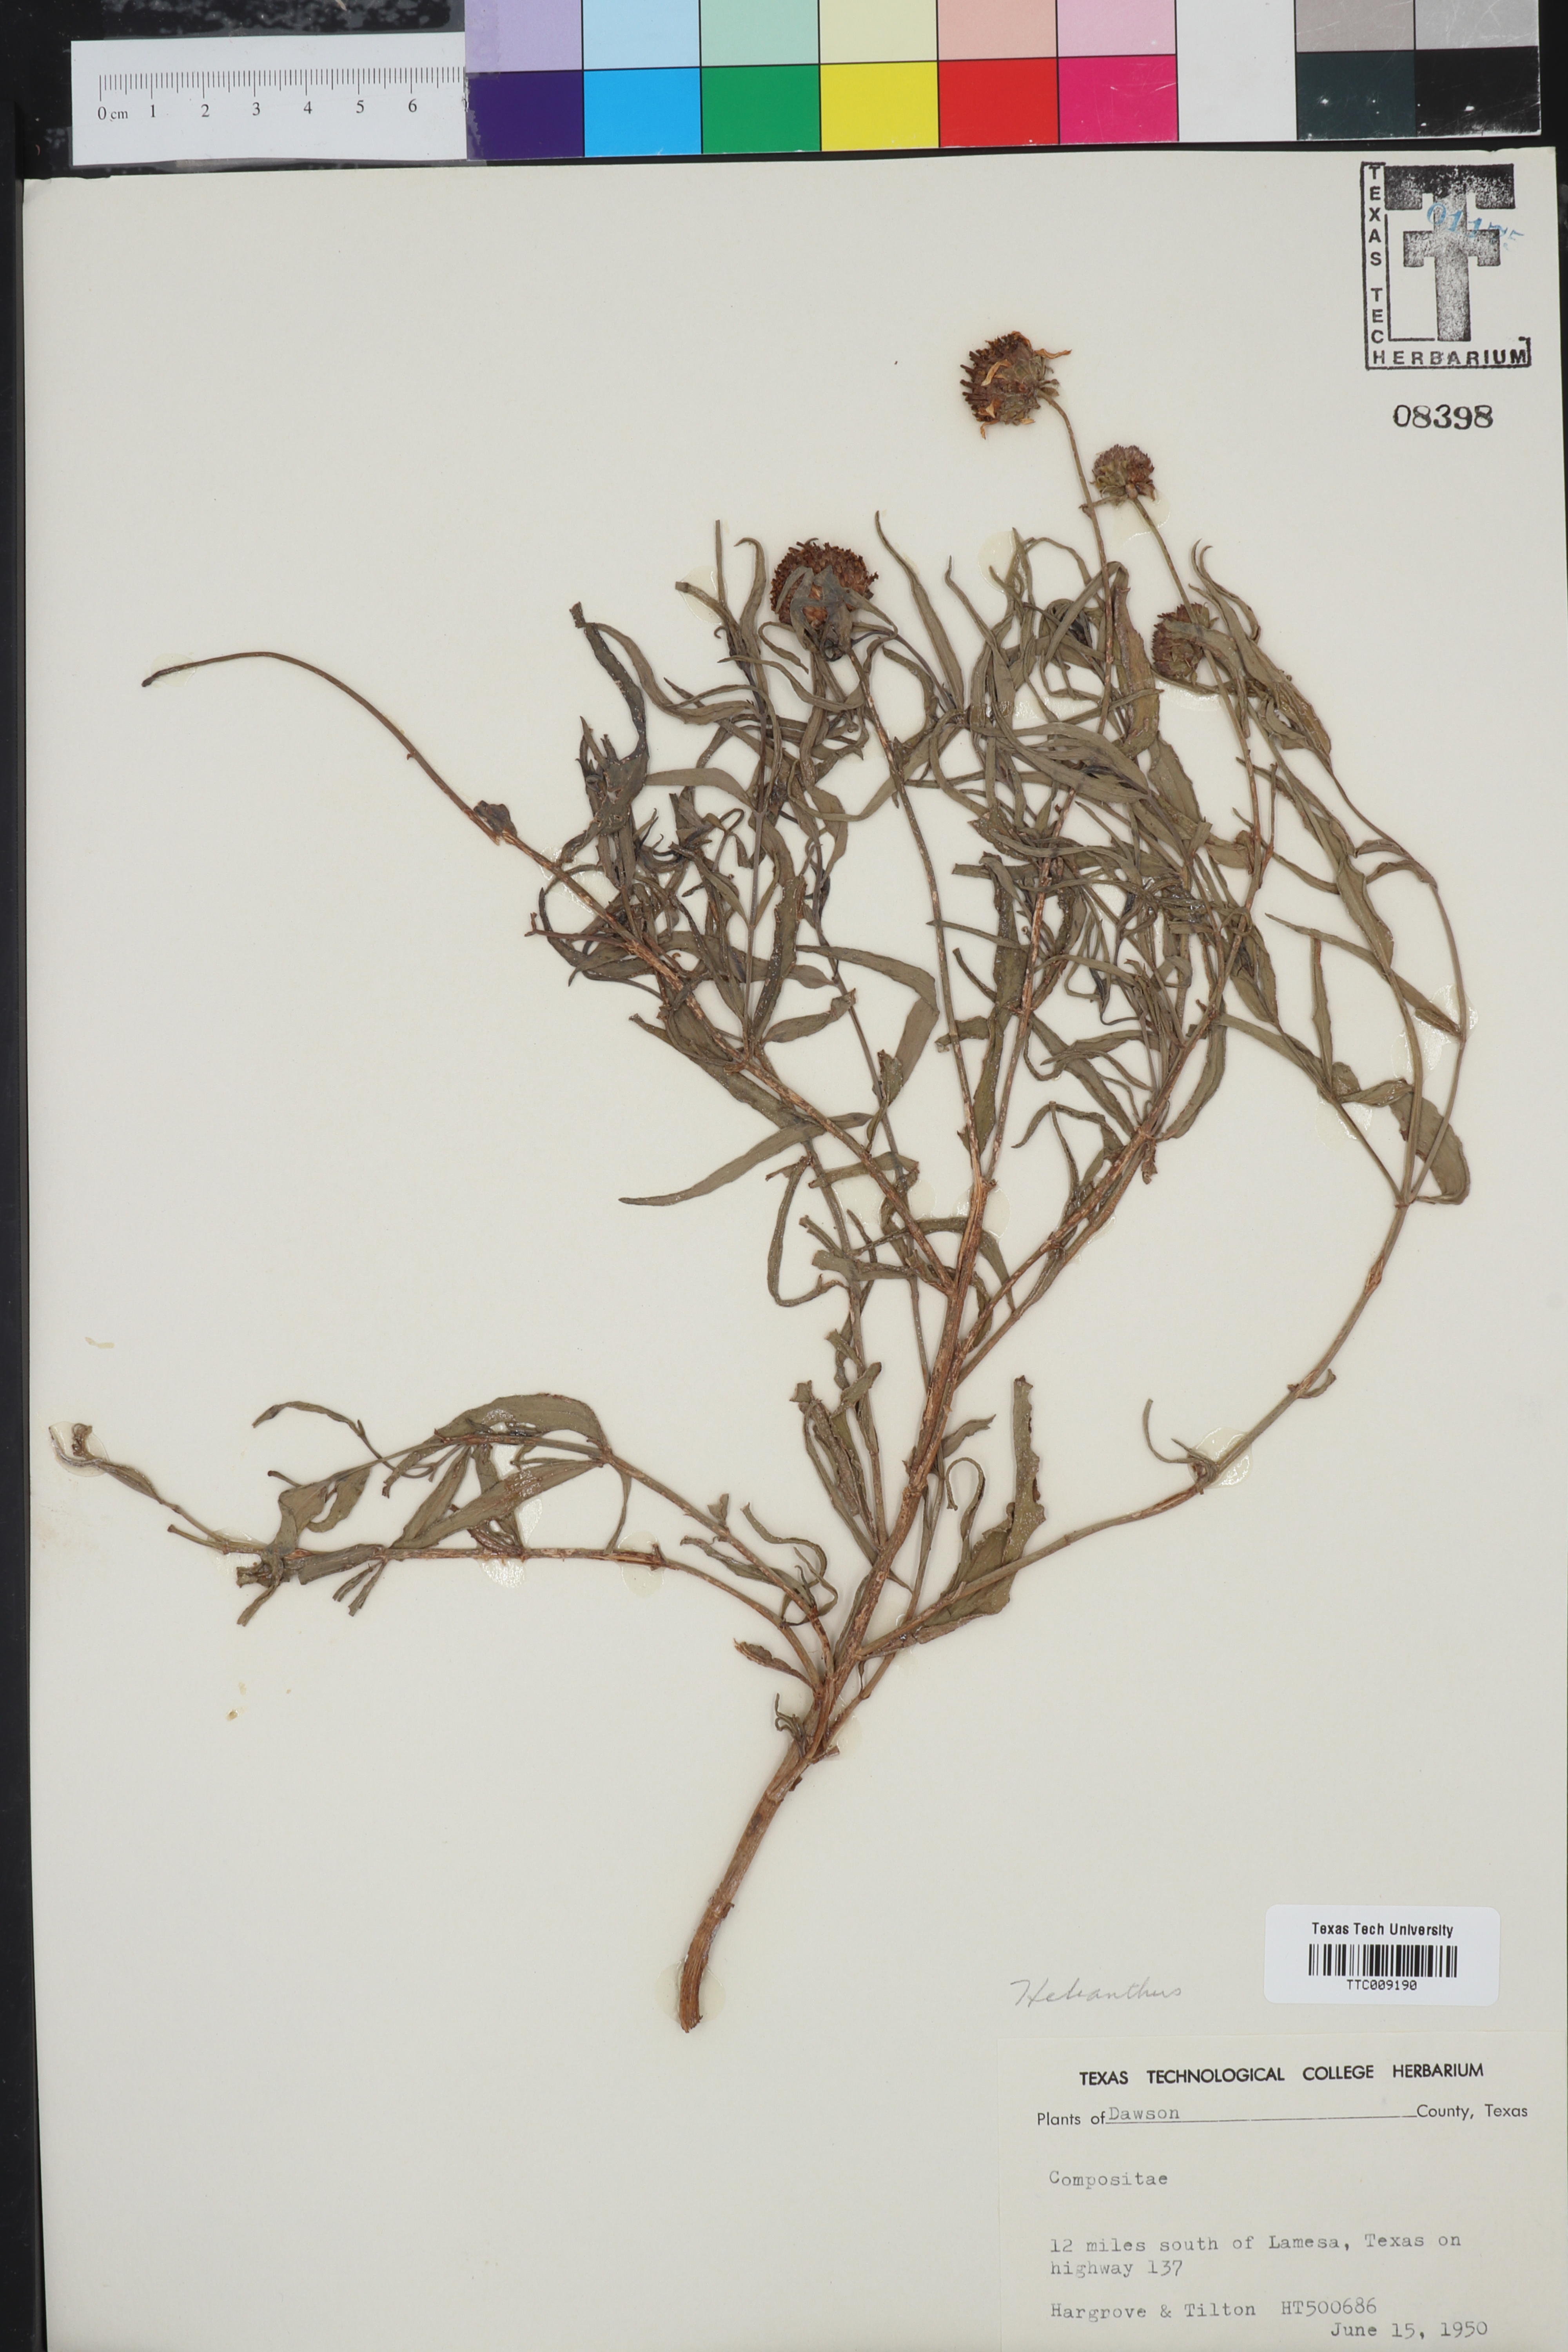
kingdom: Plantae
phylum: Tracheophyta
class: Magnoliopsida
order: Asterales
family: Asteraceae
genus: Helianthus
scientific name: Helianthus ciliaris
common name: Texas blueweed
